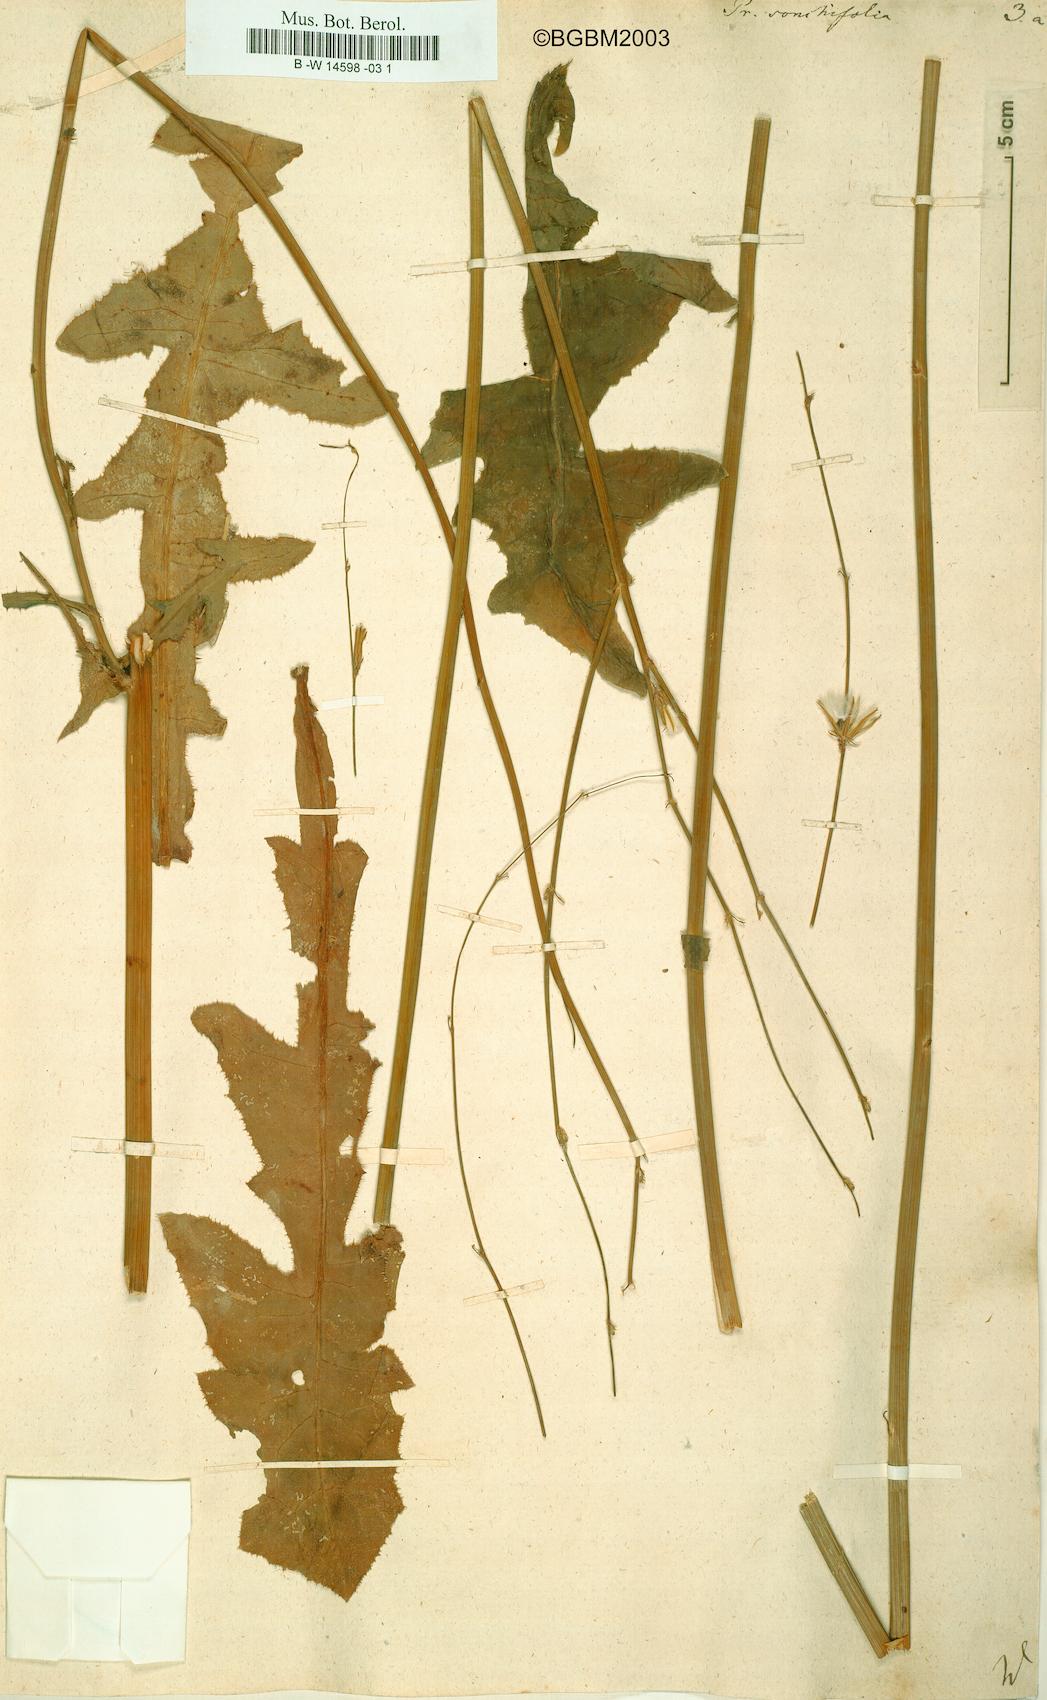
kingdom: Plantae
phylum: Tracheophyta
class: Magnoliopsida
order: Asterales
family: Asteraceae
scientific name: Asteraceae
